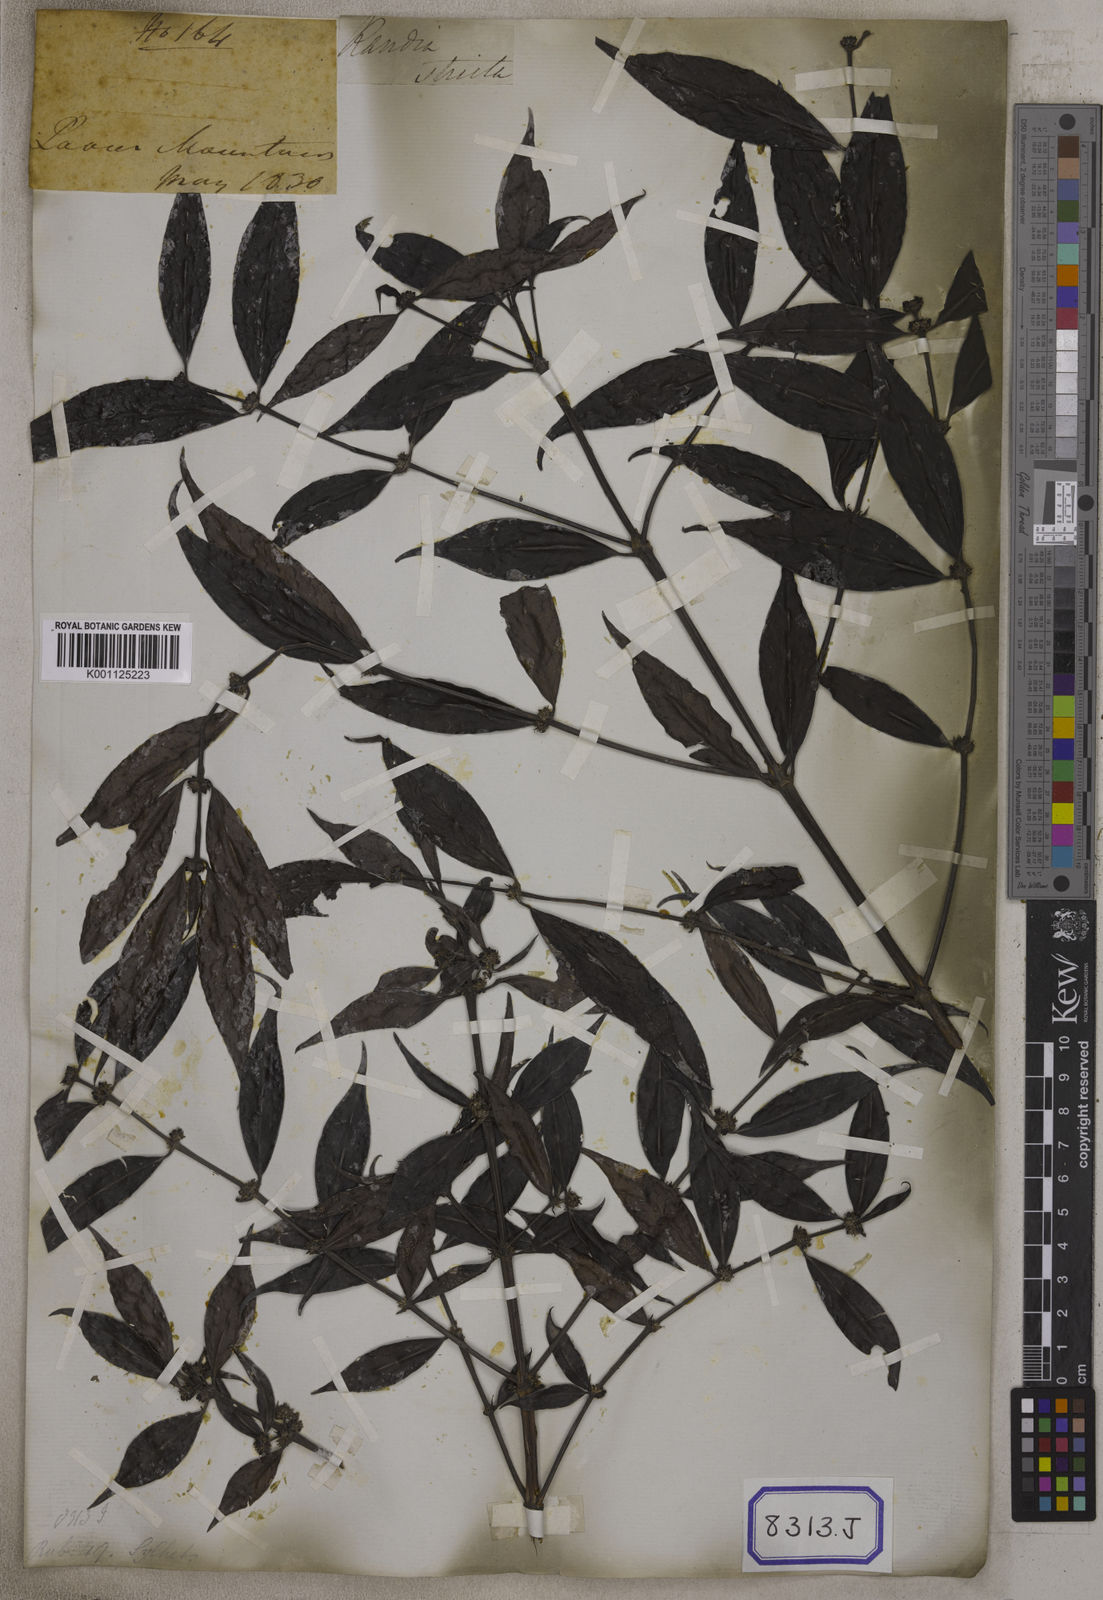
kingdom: Plantae
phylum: Tracheophyta
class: Magnoliopsida
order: Gentianales
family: Rubiaceae
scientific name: Rubiaceae
